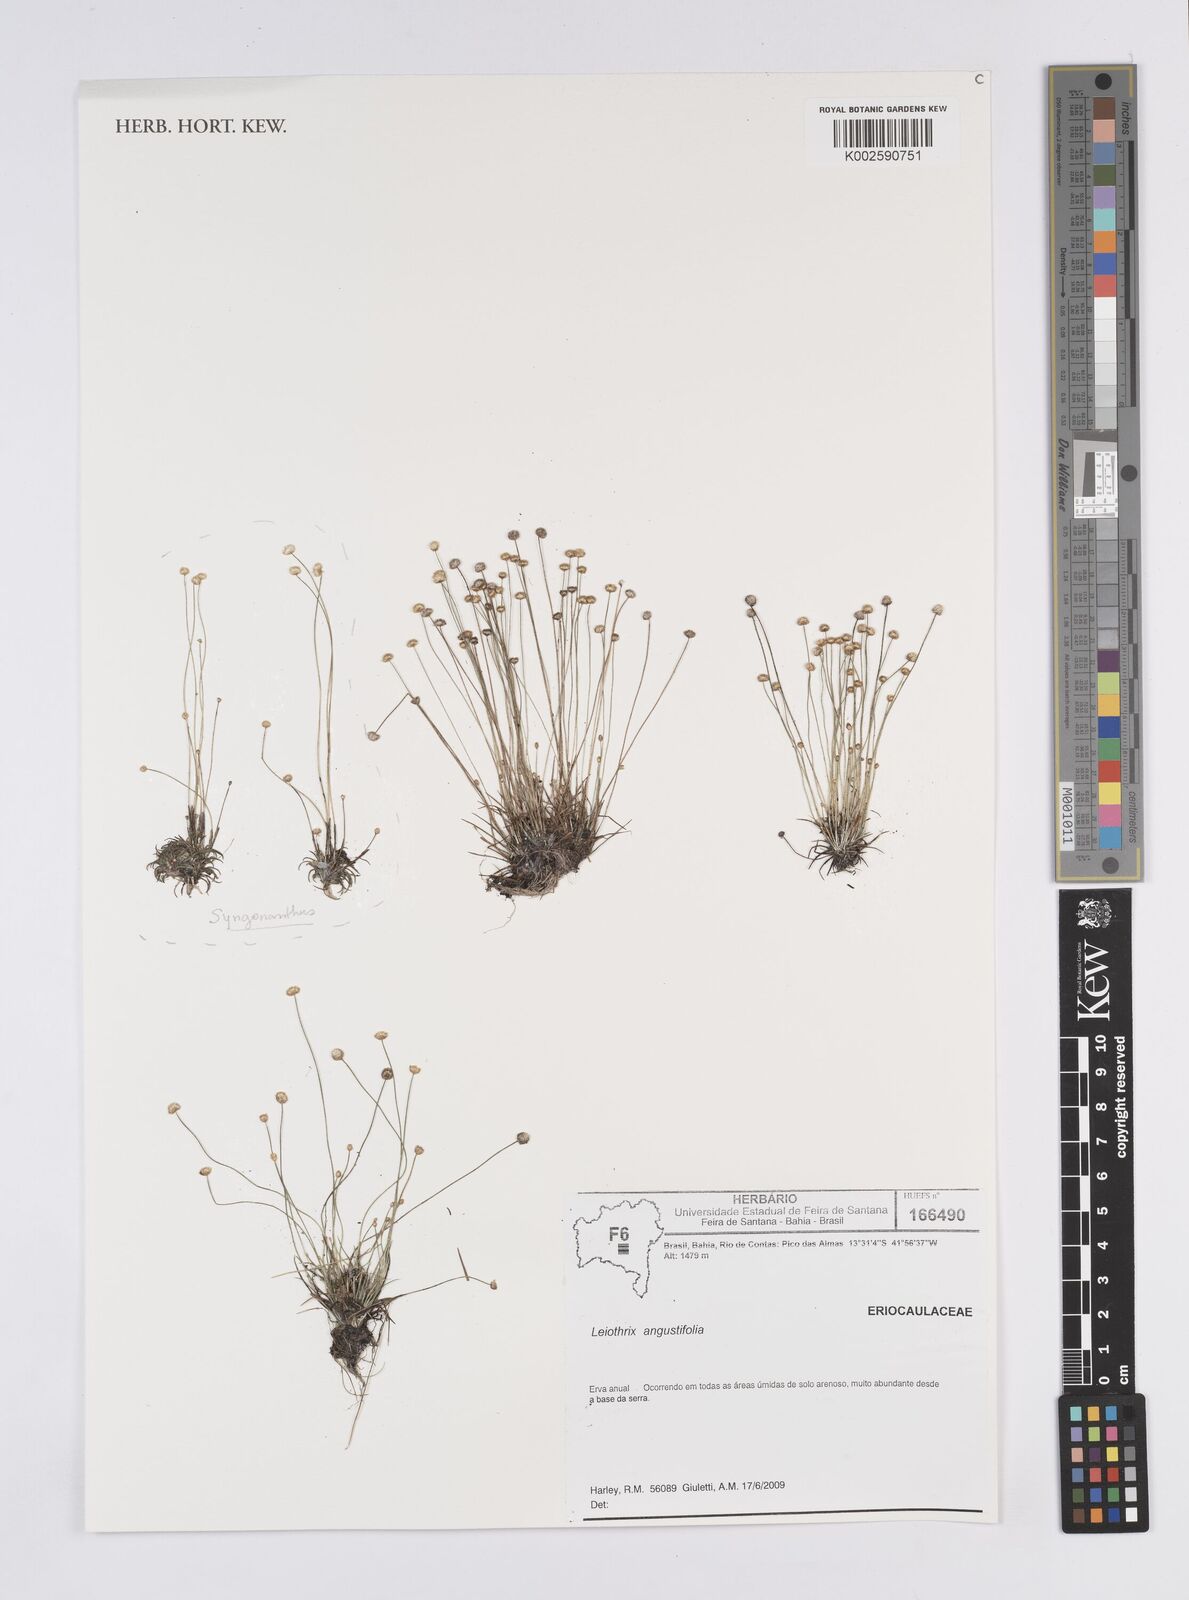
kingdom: Plantae
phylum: Tracheophyta
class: Liliopsida
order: Poales
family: Eriocaulaceae
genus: Leiothrix
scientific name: Leiothrix angustifolia
